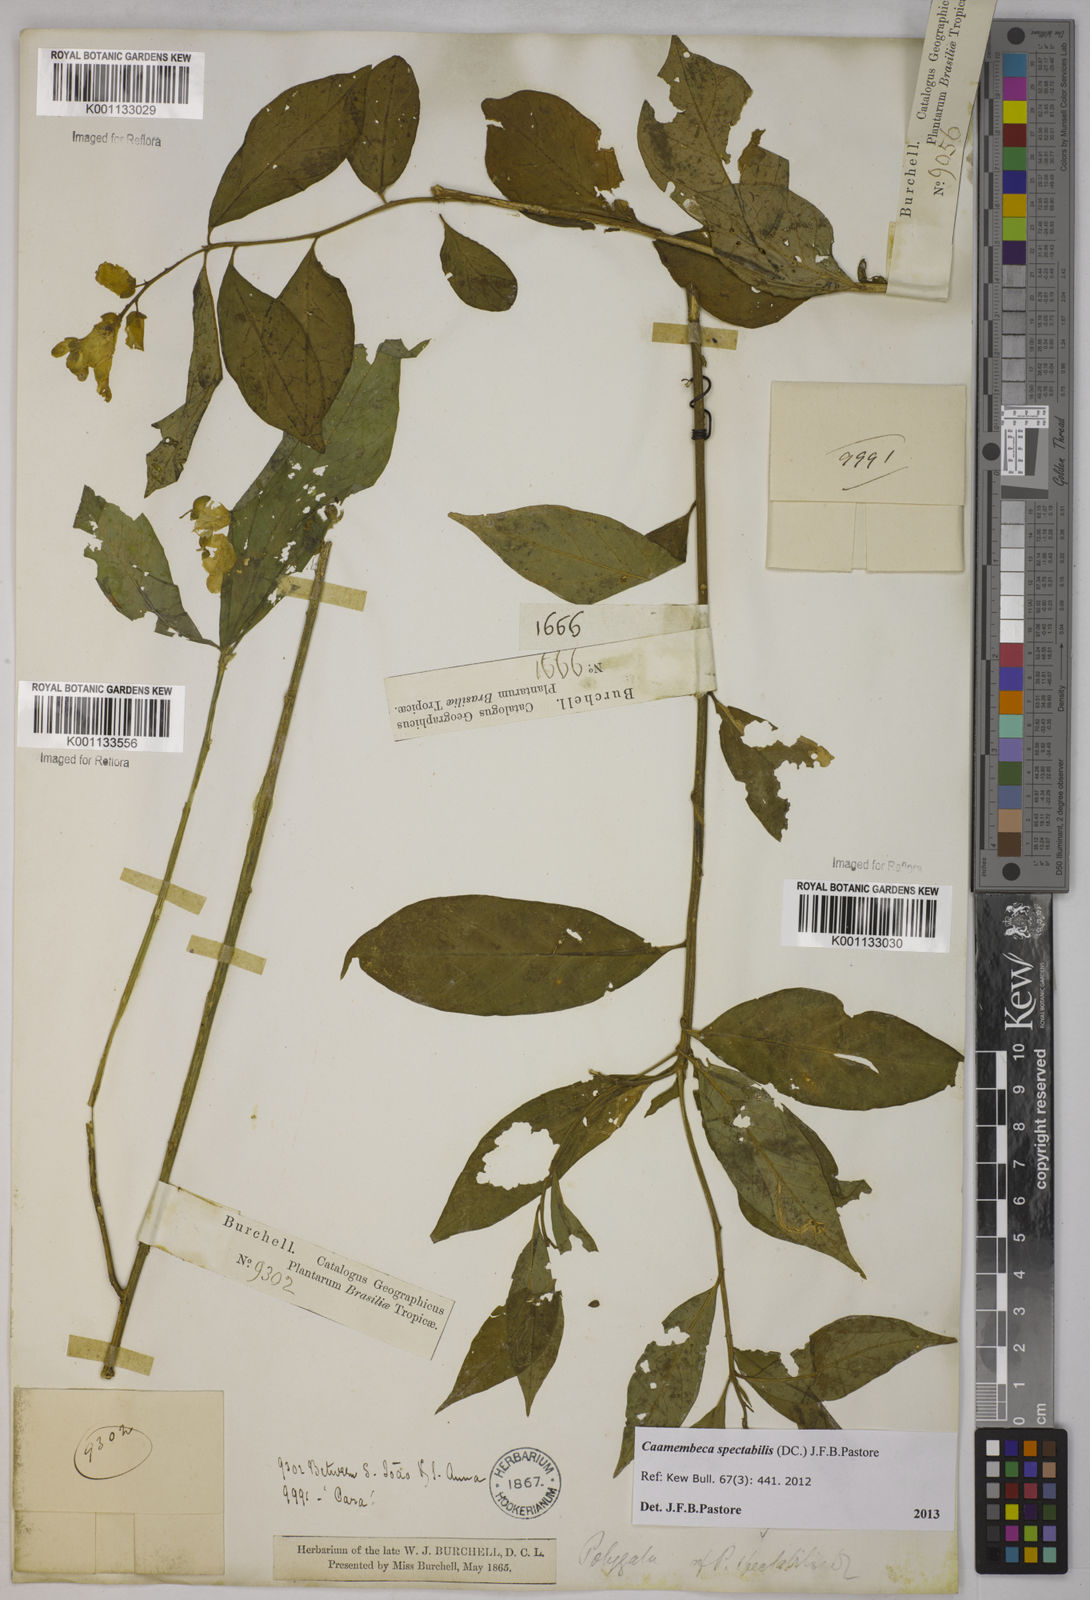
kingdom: Plantae
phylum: Tracheophyta
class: Magnoliopsida
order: Fabales
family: Polygalaceae
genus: Polygala
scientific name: Polygala
